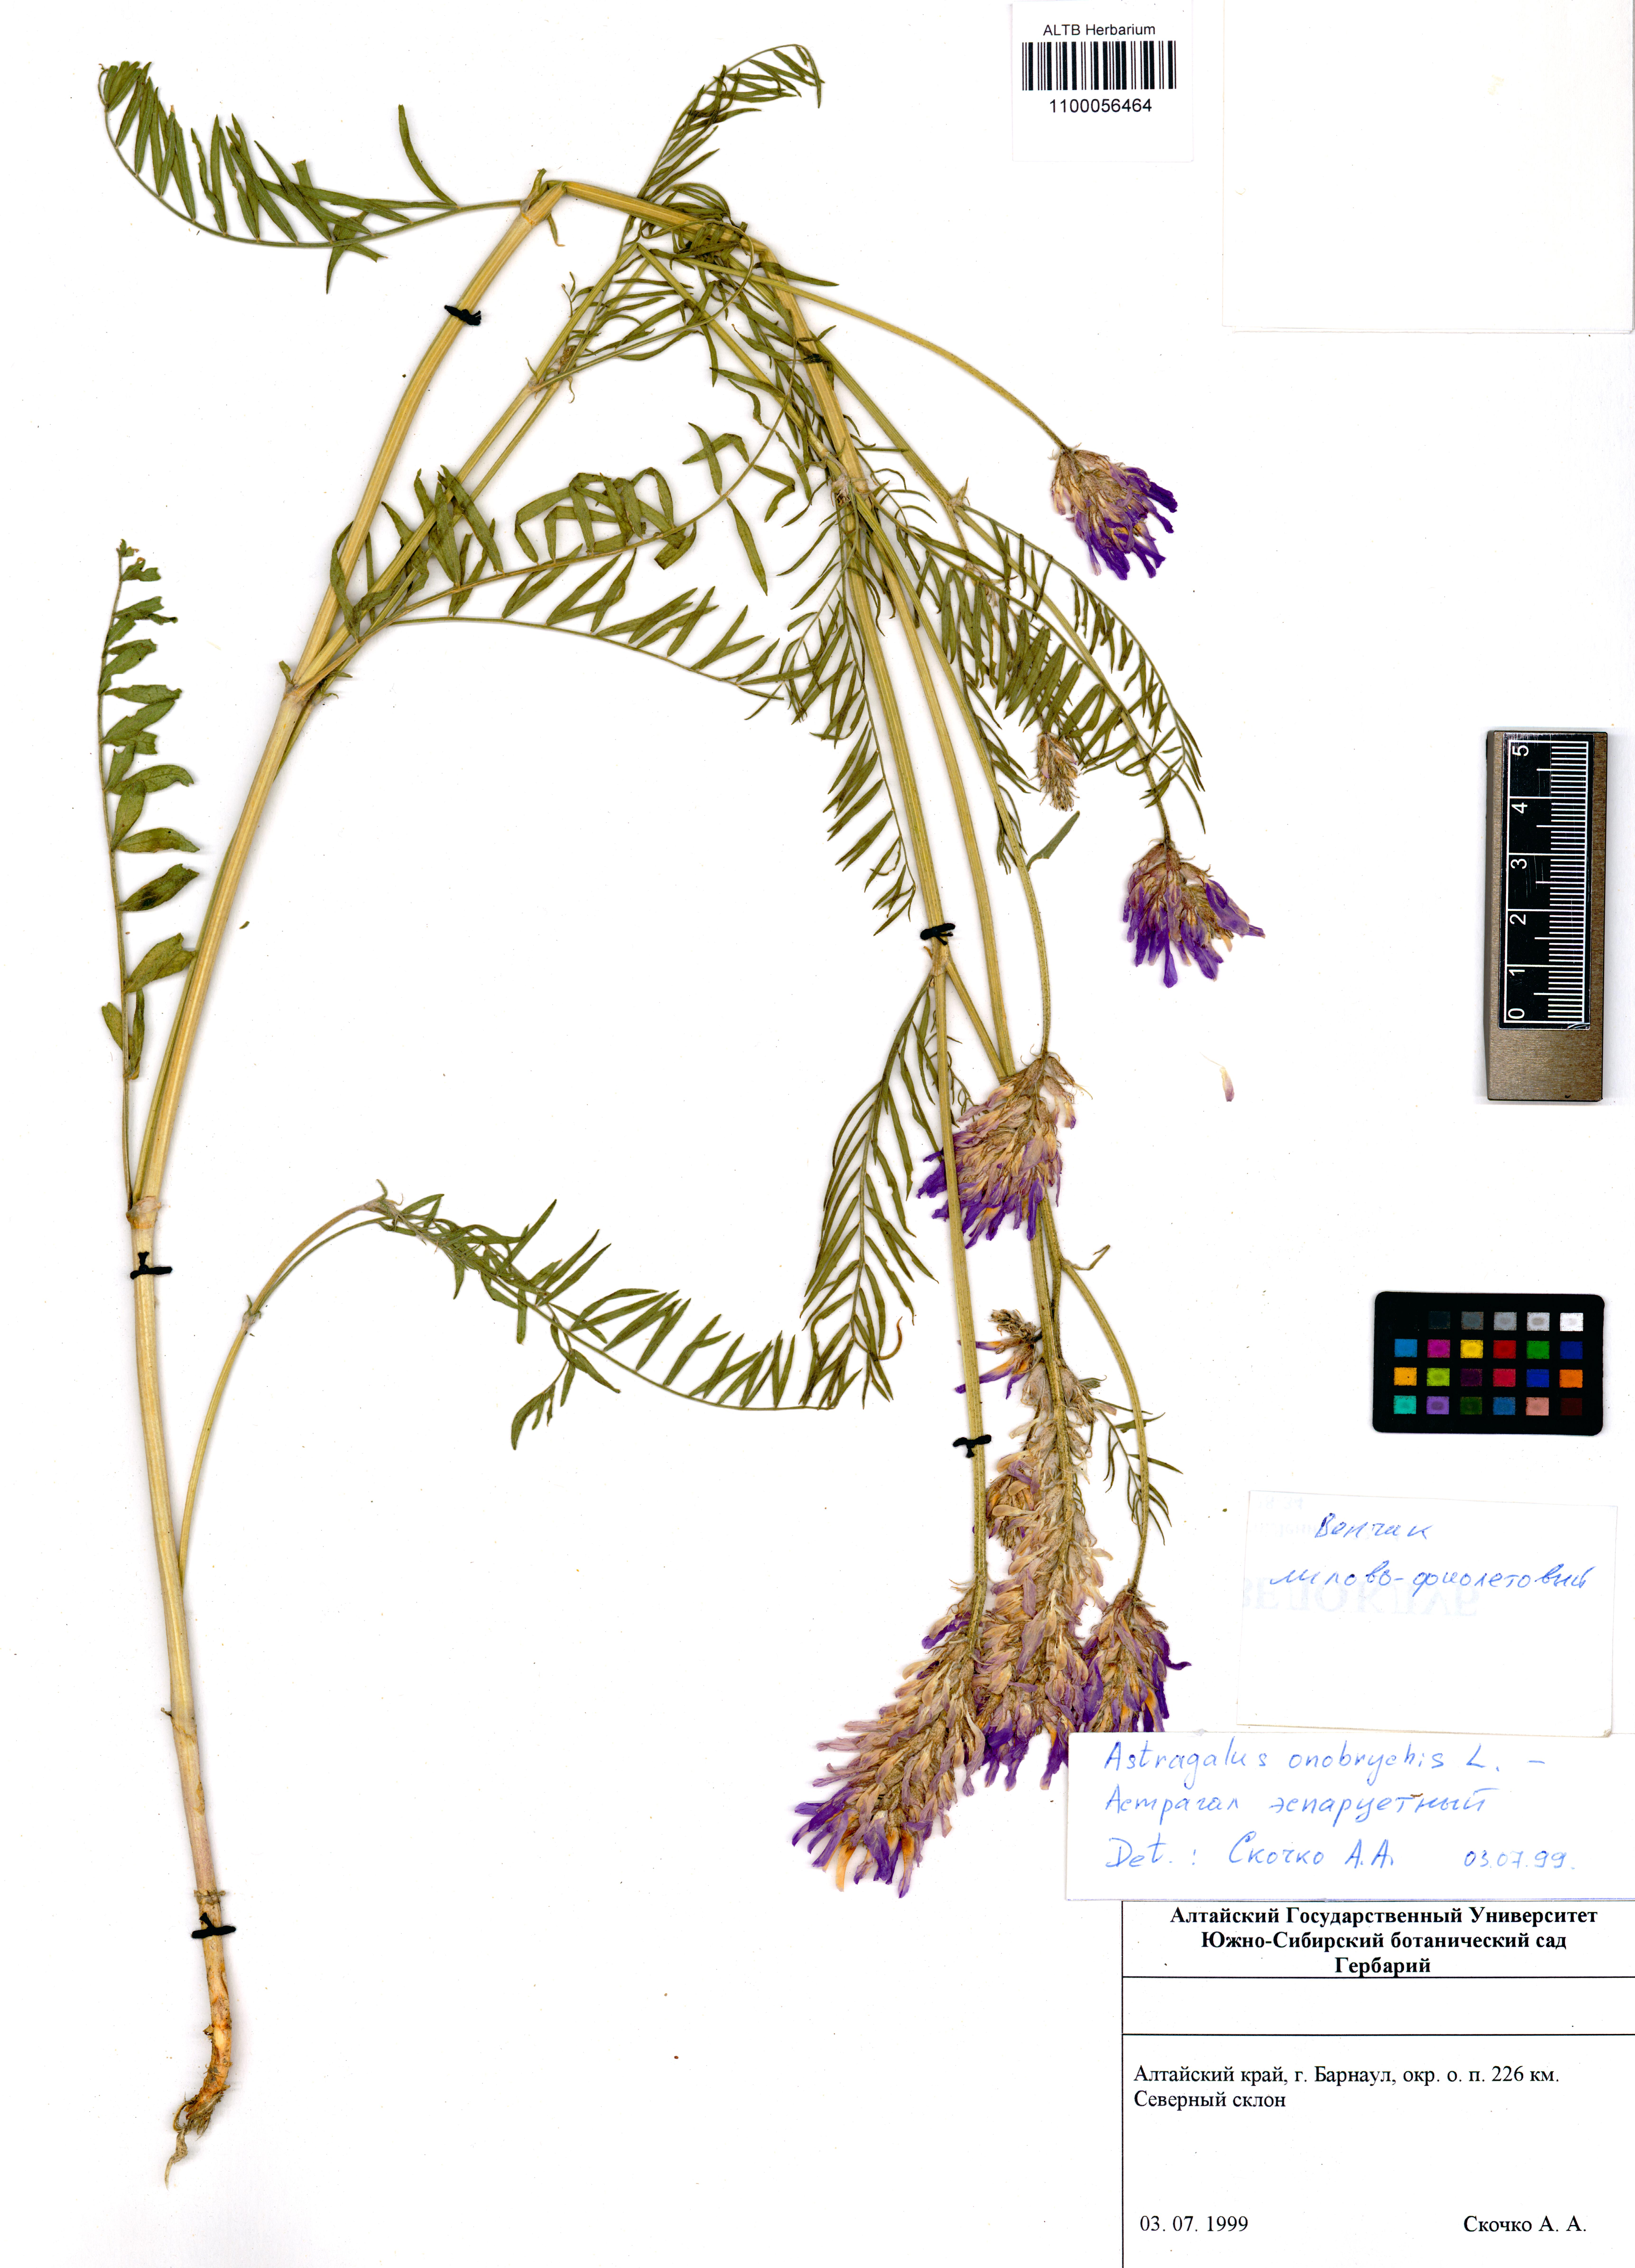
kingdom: Plantae
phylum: Tracheophyta
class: Magnoliopsida
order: Fabales
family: Fabaceae
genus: Astragalus
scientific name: Astragalus onobrychis
